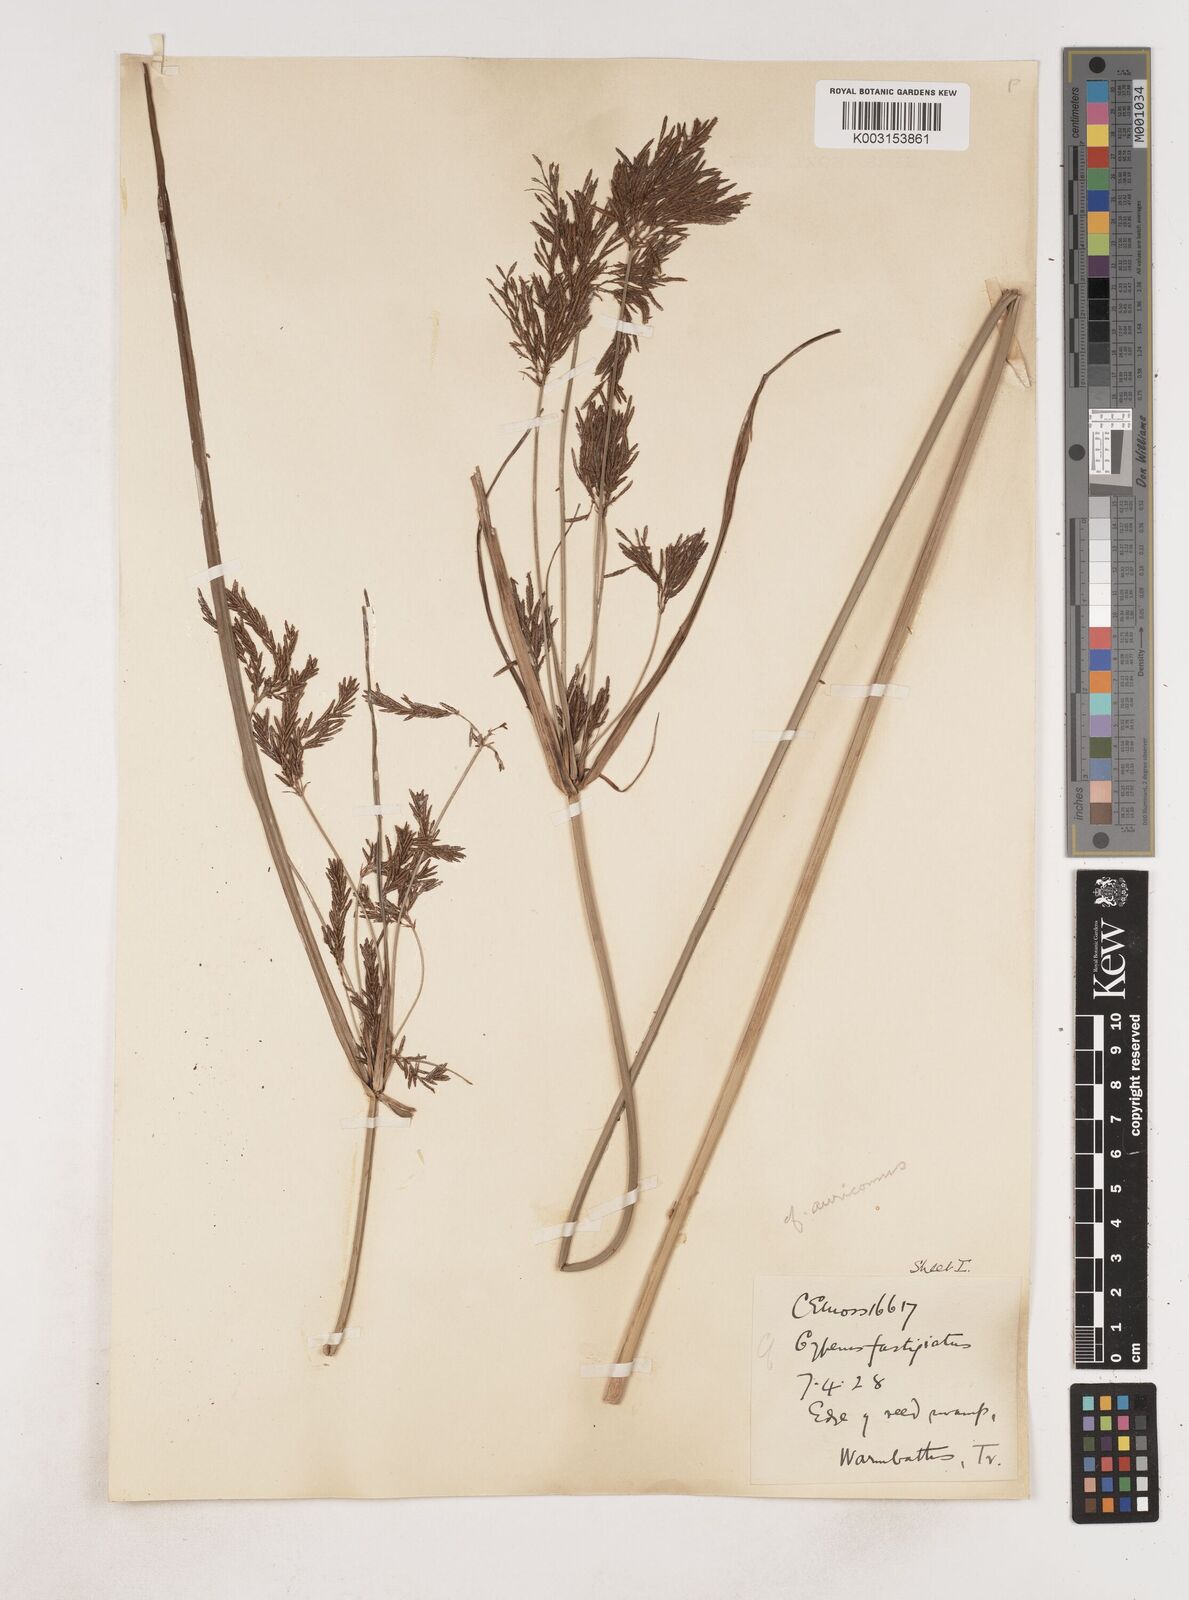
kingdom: Plantae
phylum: Tracheophyta
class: Liliopsida
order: Poales
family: Cyperaceae
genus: Cyperus
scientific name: Cyperus
